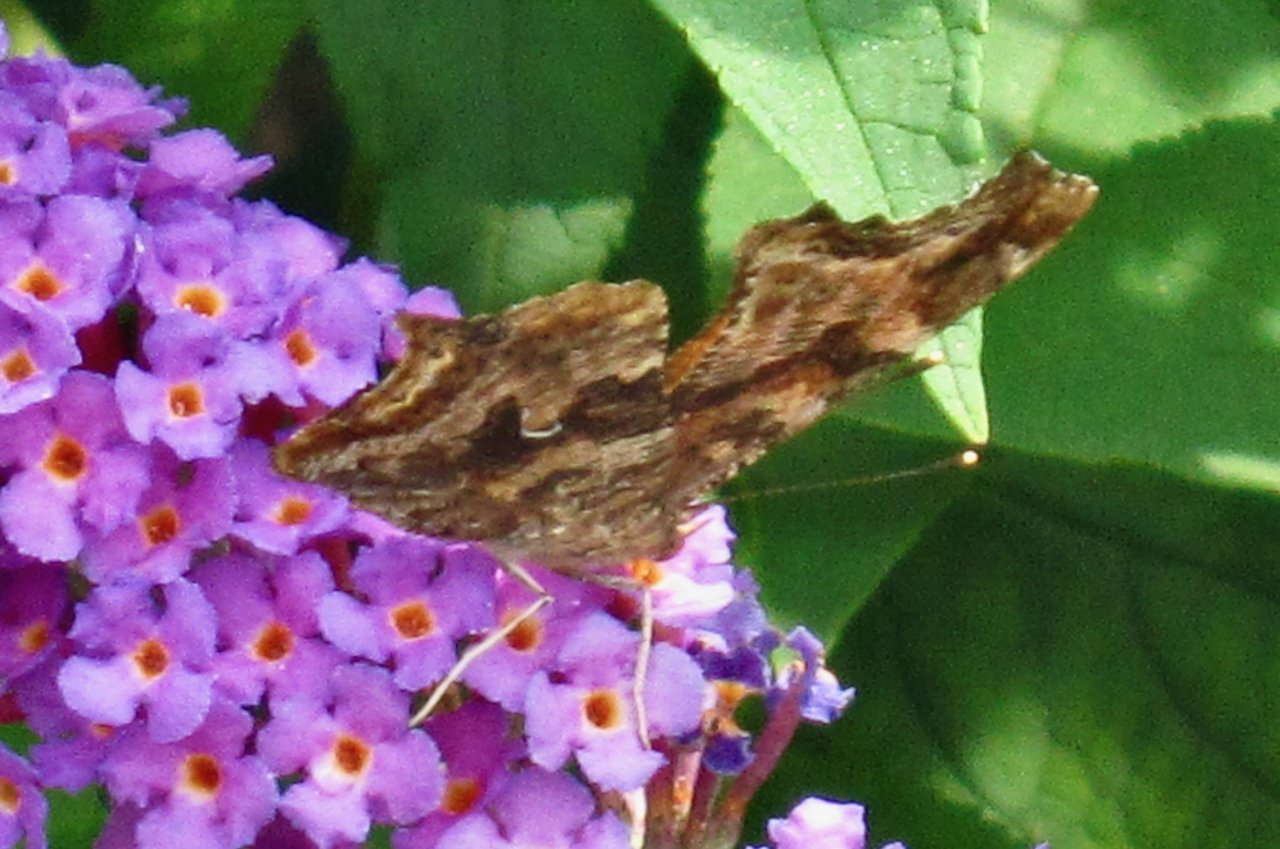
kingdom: Animalia
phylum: Arthropoda
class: Insecta
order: Lepidoptera
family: Nymphalidae
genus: Polygonia
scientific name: Polygonia comma
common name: Eastern Comma
